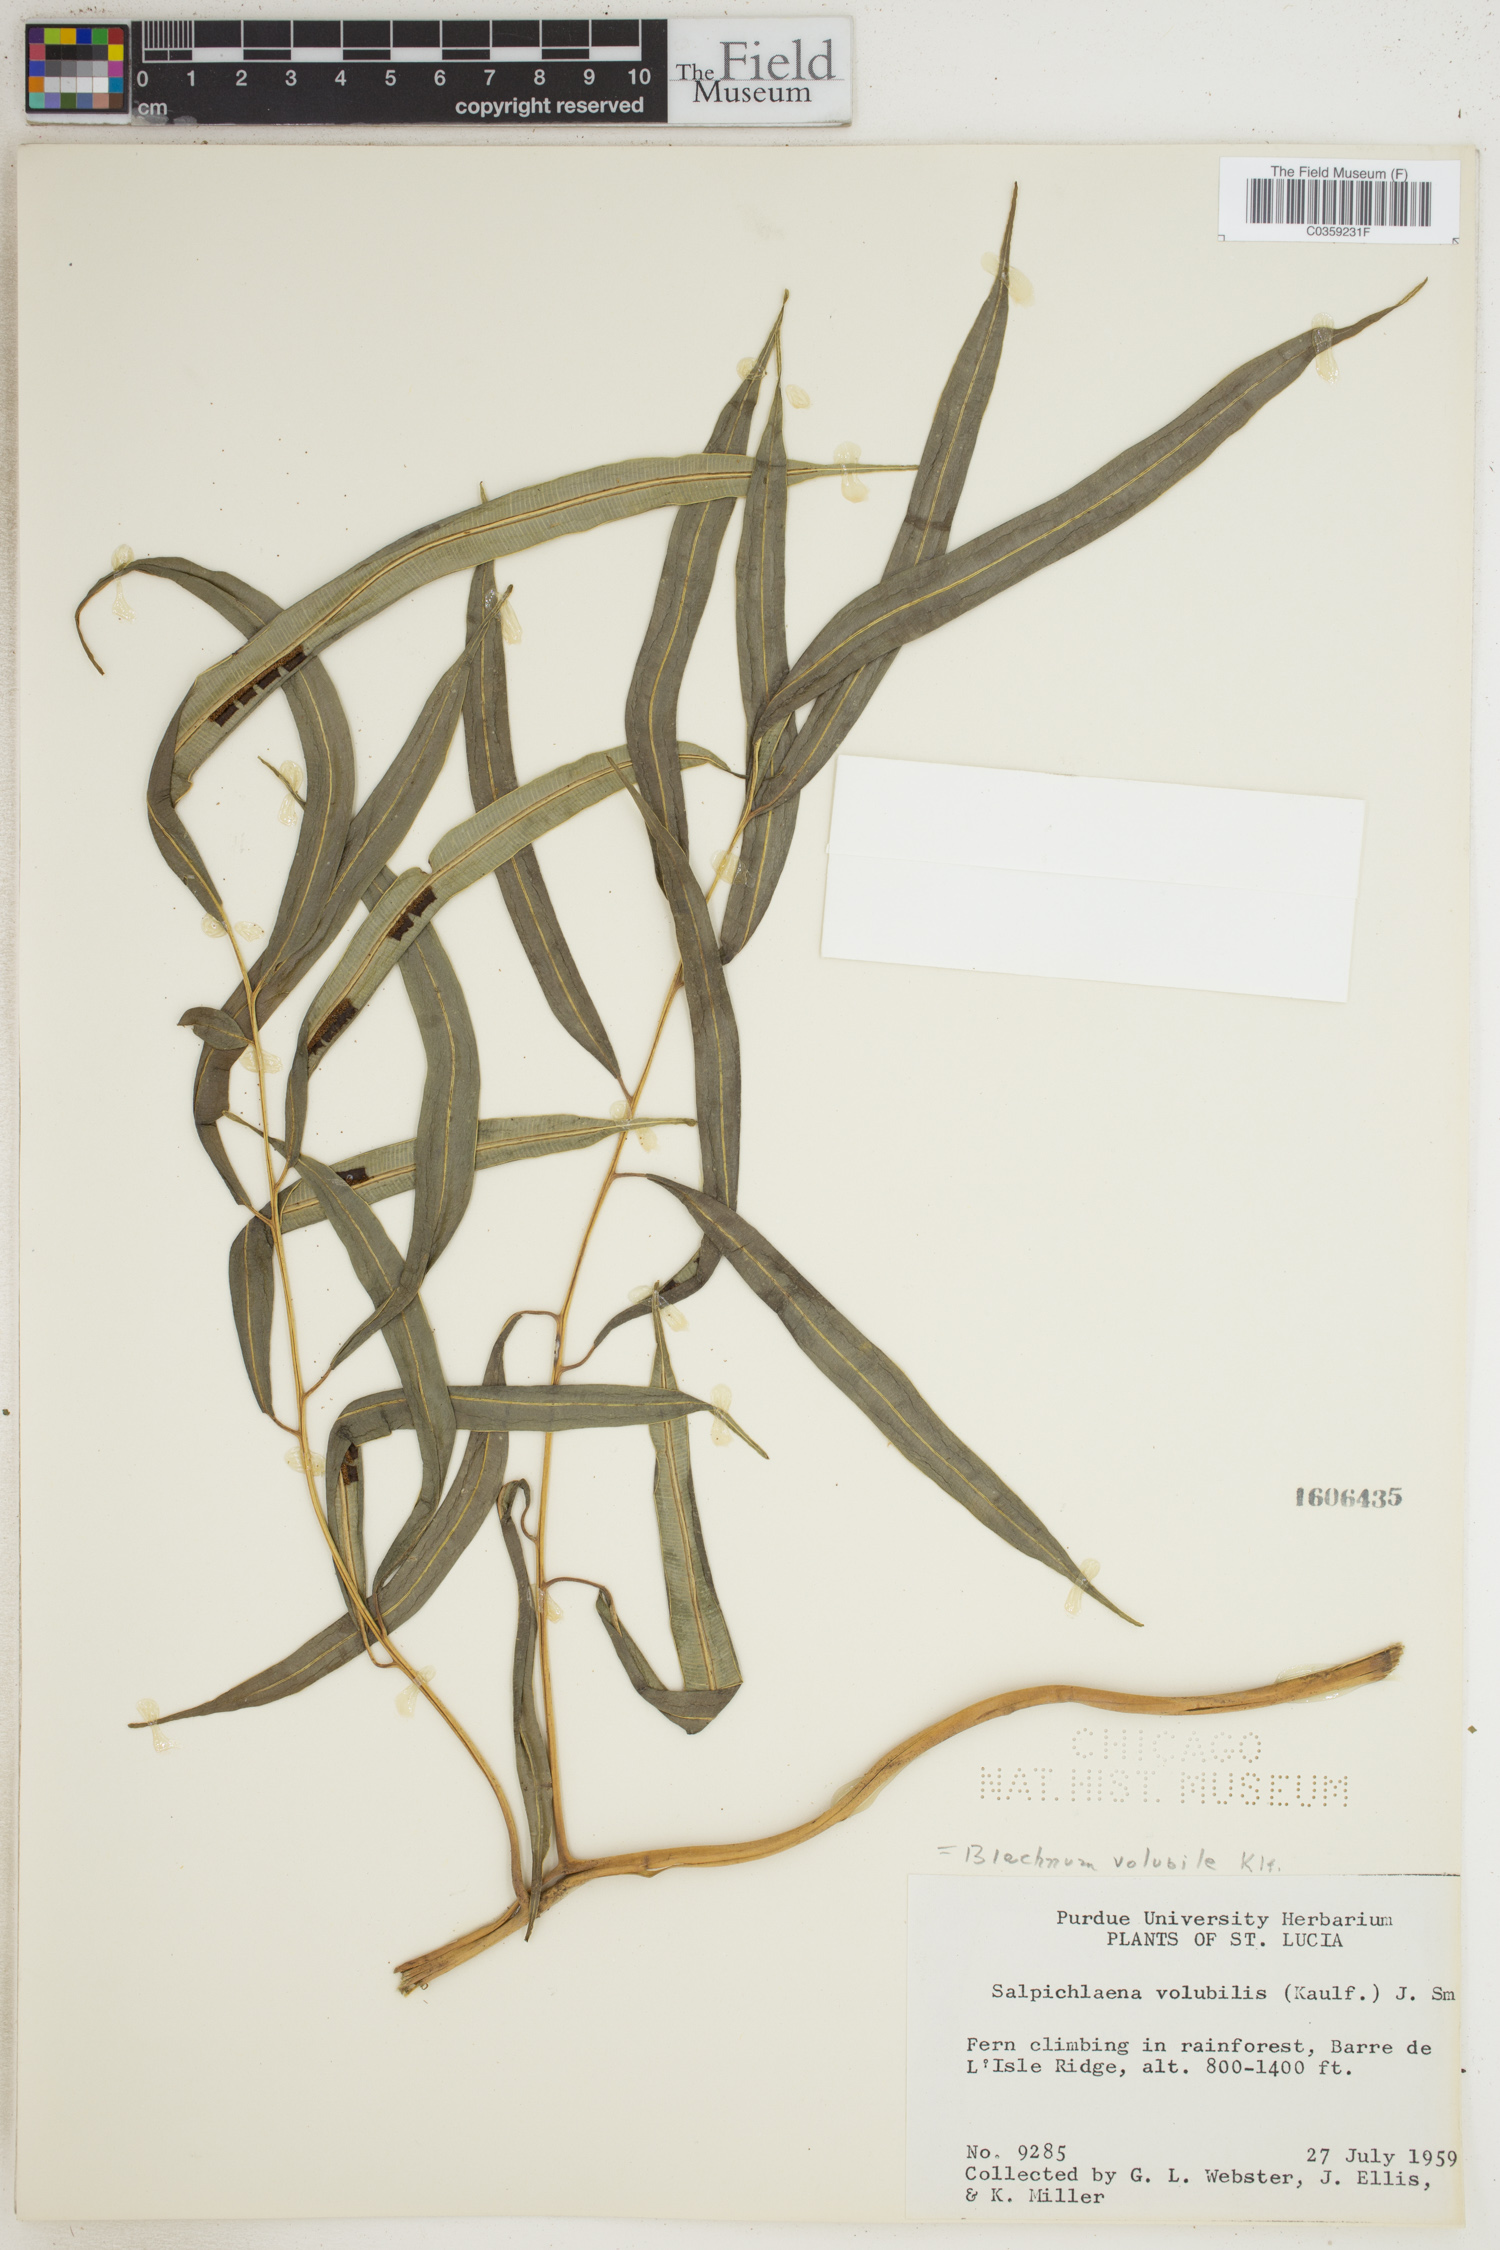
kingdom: Plantae
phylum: Tracheophyta
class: Polypodiopsida
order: Polypodiales
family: Blechnaceae
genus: Salpichlaena
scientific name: Salpichlaena volubilis
